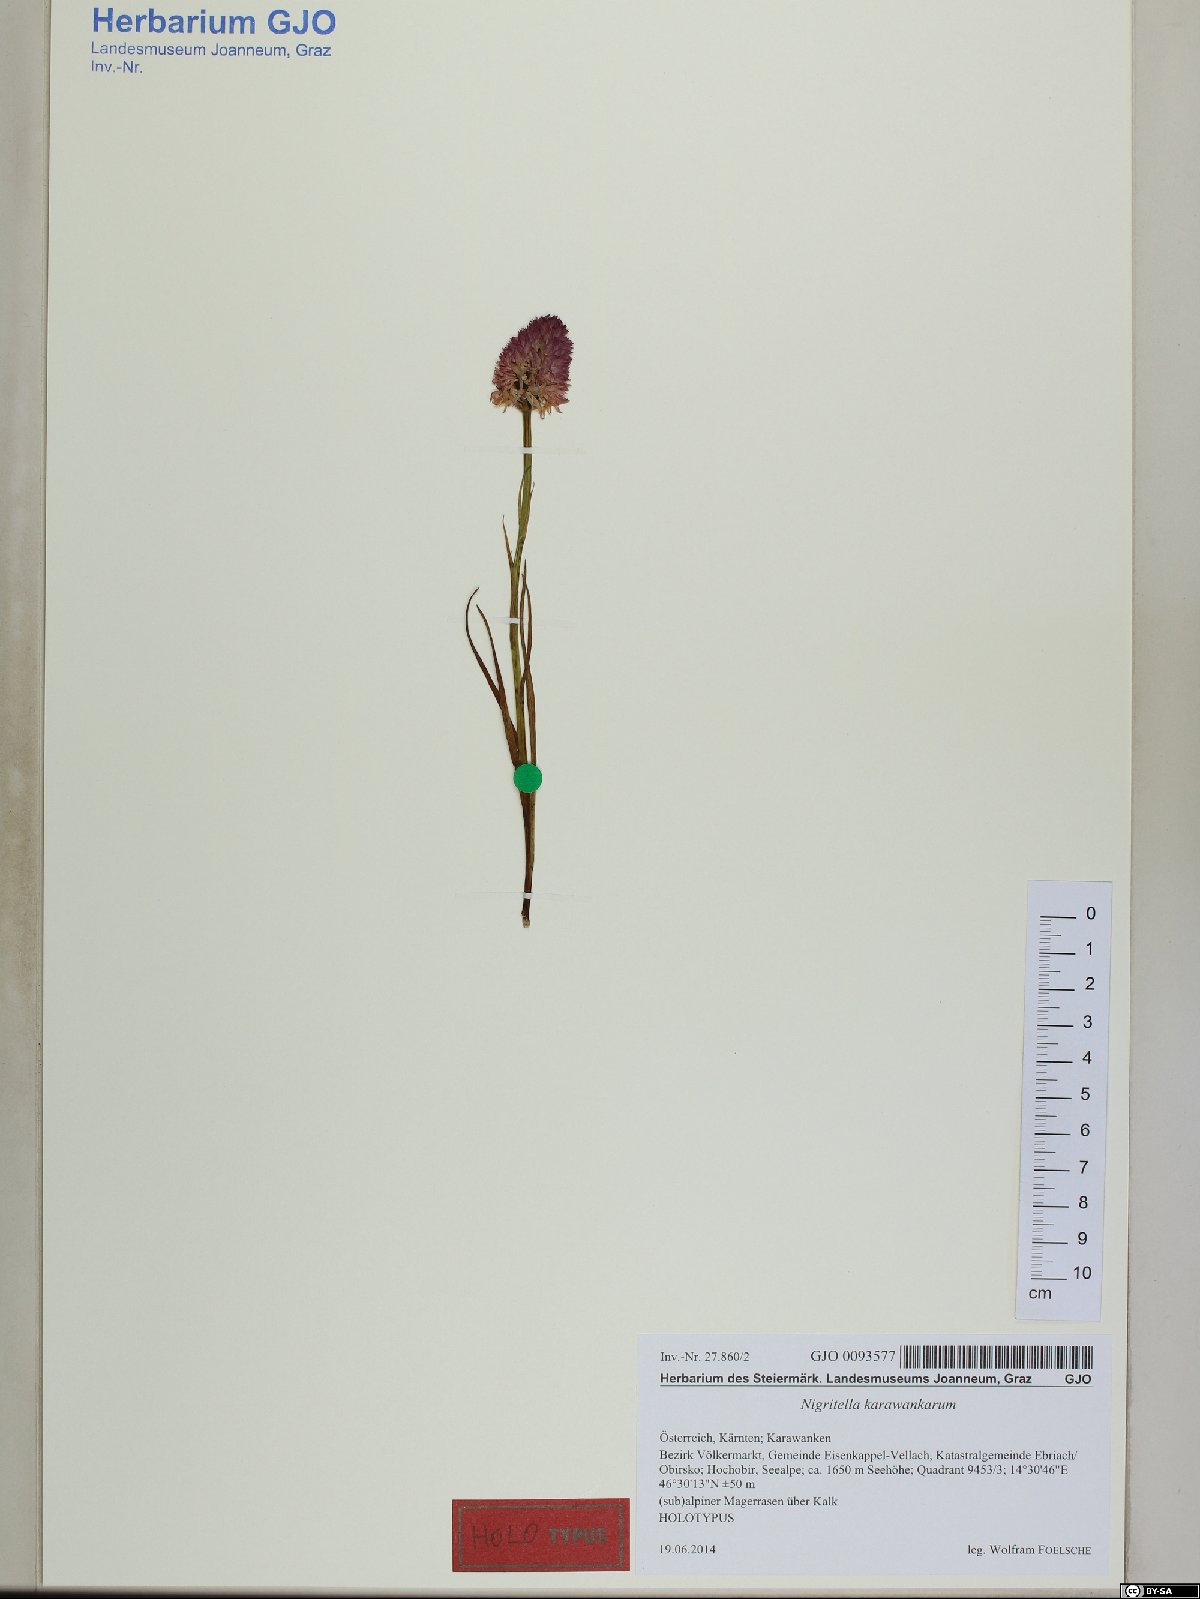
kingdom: Plantae
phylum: Tracheophyta
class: Liliopsida
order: Asparagales
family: Orchidaceae
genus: Gymnadenia
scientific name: Gymnadenia lithopolitanica
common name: Austrian gymnadenia
